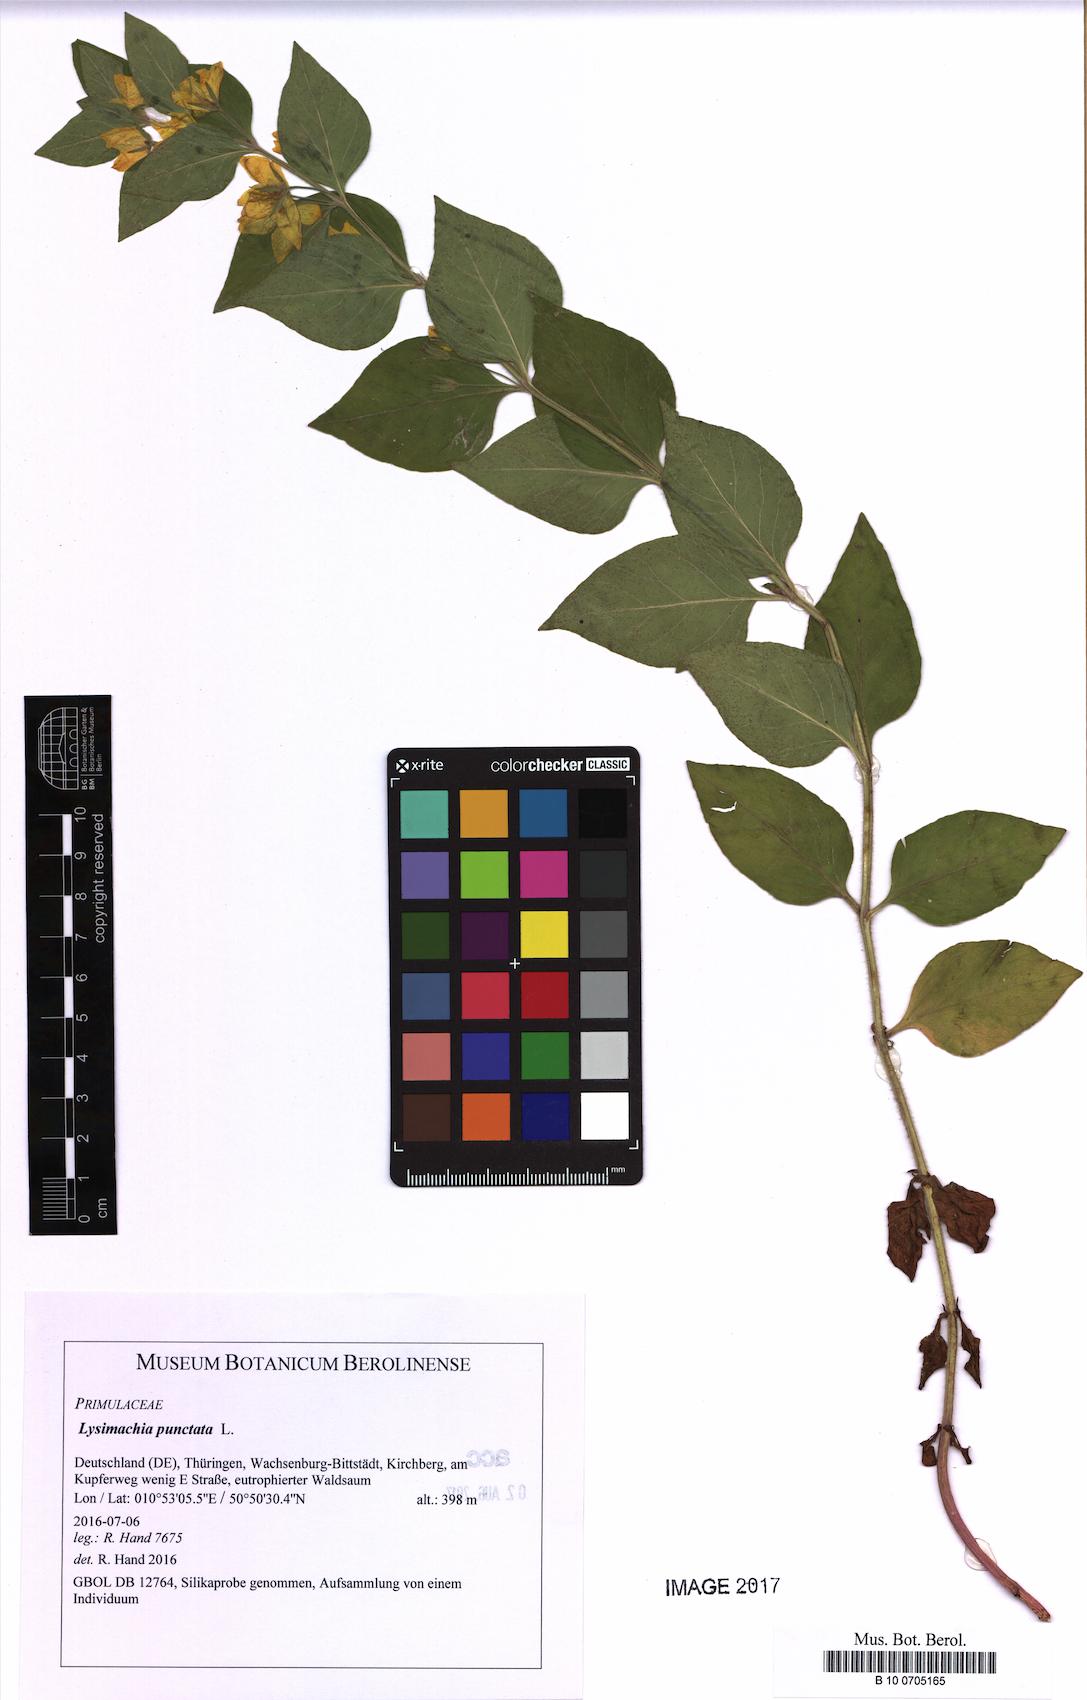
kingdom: Plantae
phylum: Tracheophyta
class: Magnoliopsida
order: Ericales
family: Primulaceae
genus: Lysimachia
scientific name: Lysimachia punctata
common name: Dotted loosestrife
